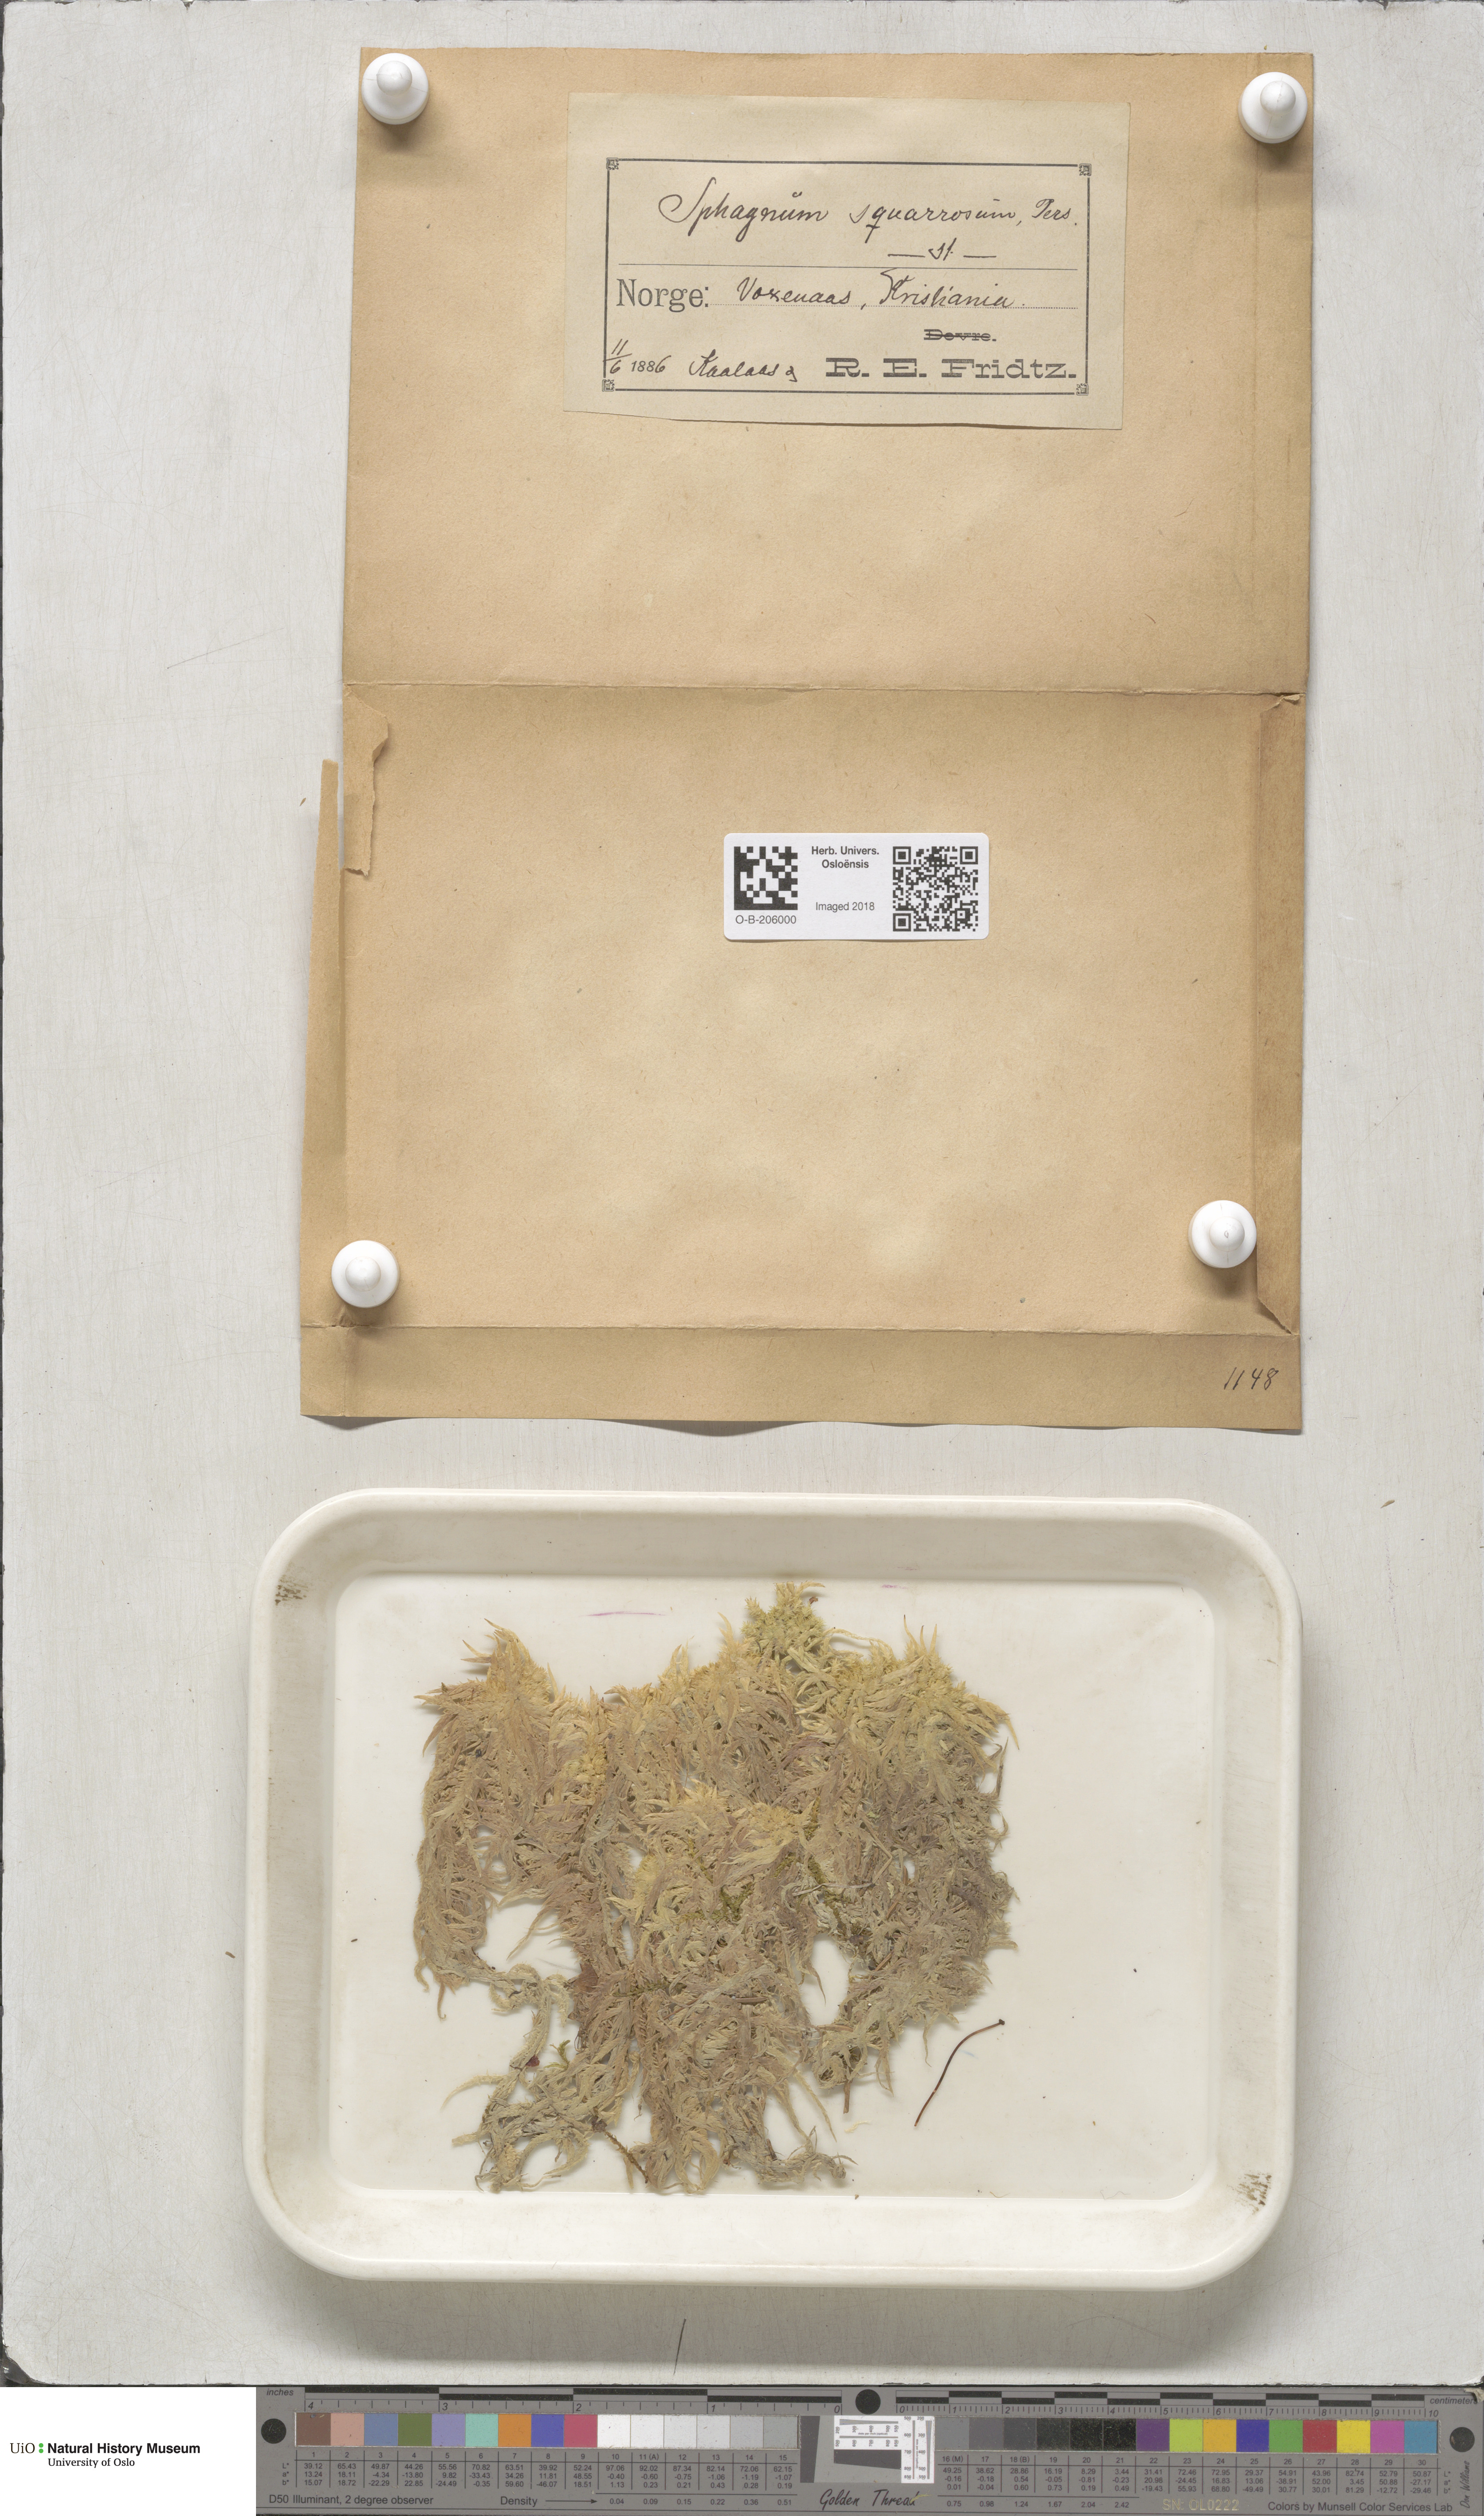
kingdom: Plantae
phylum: Bryophyta
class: Sphagnopsida
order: Sphagnales
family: Sphagnaceae
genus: Sphagnum
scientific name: Sphagnum squarrosum
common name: Shaggy peat moss
